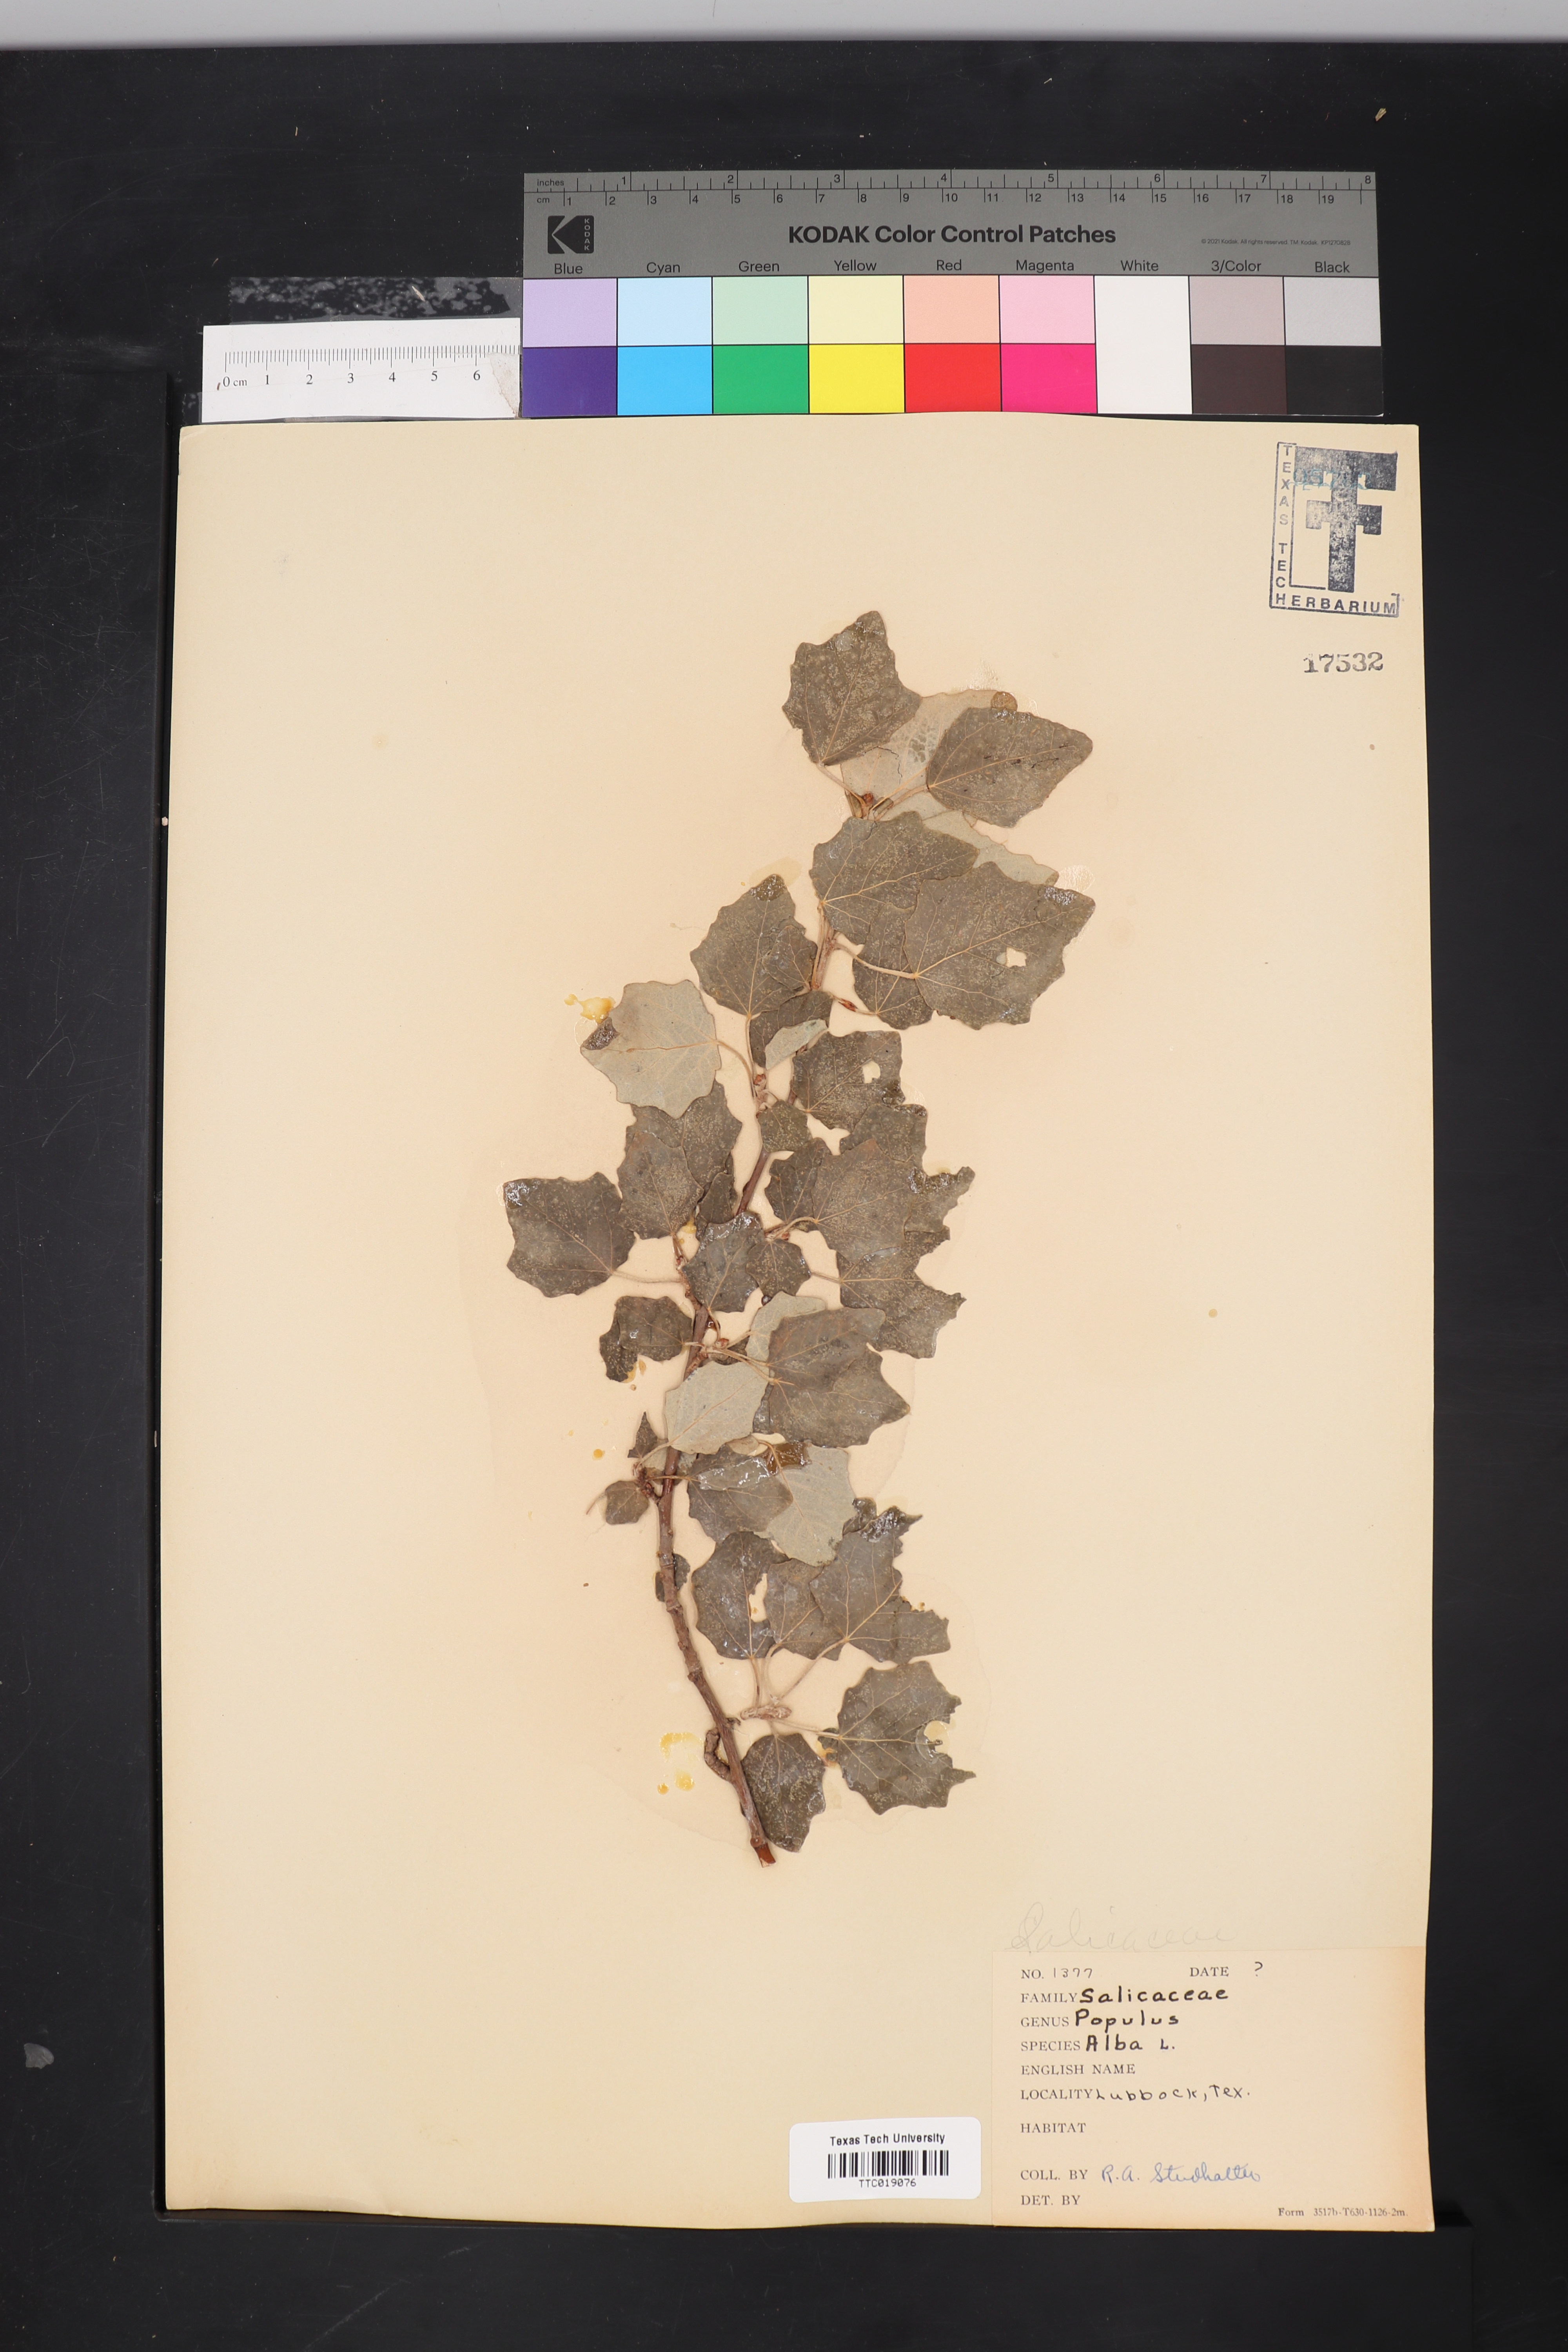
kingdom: Plantae
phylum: Tracheophyta
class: Magnoliopsida
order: Malpighiales
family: Salicaceae
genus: Populus
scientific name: Populus alba
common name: White poplar
